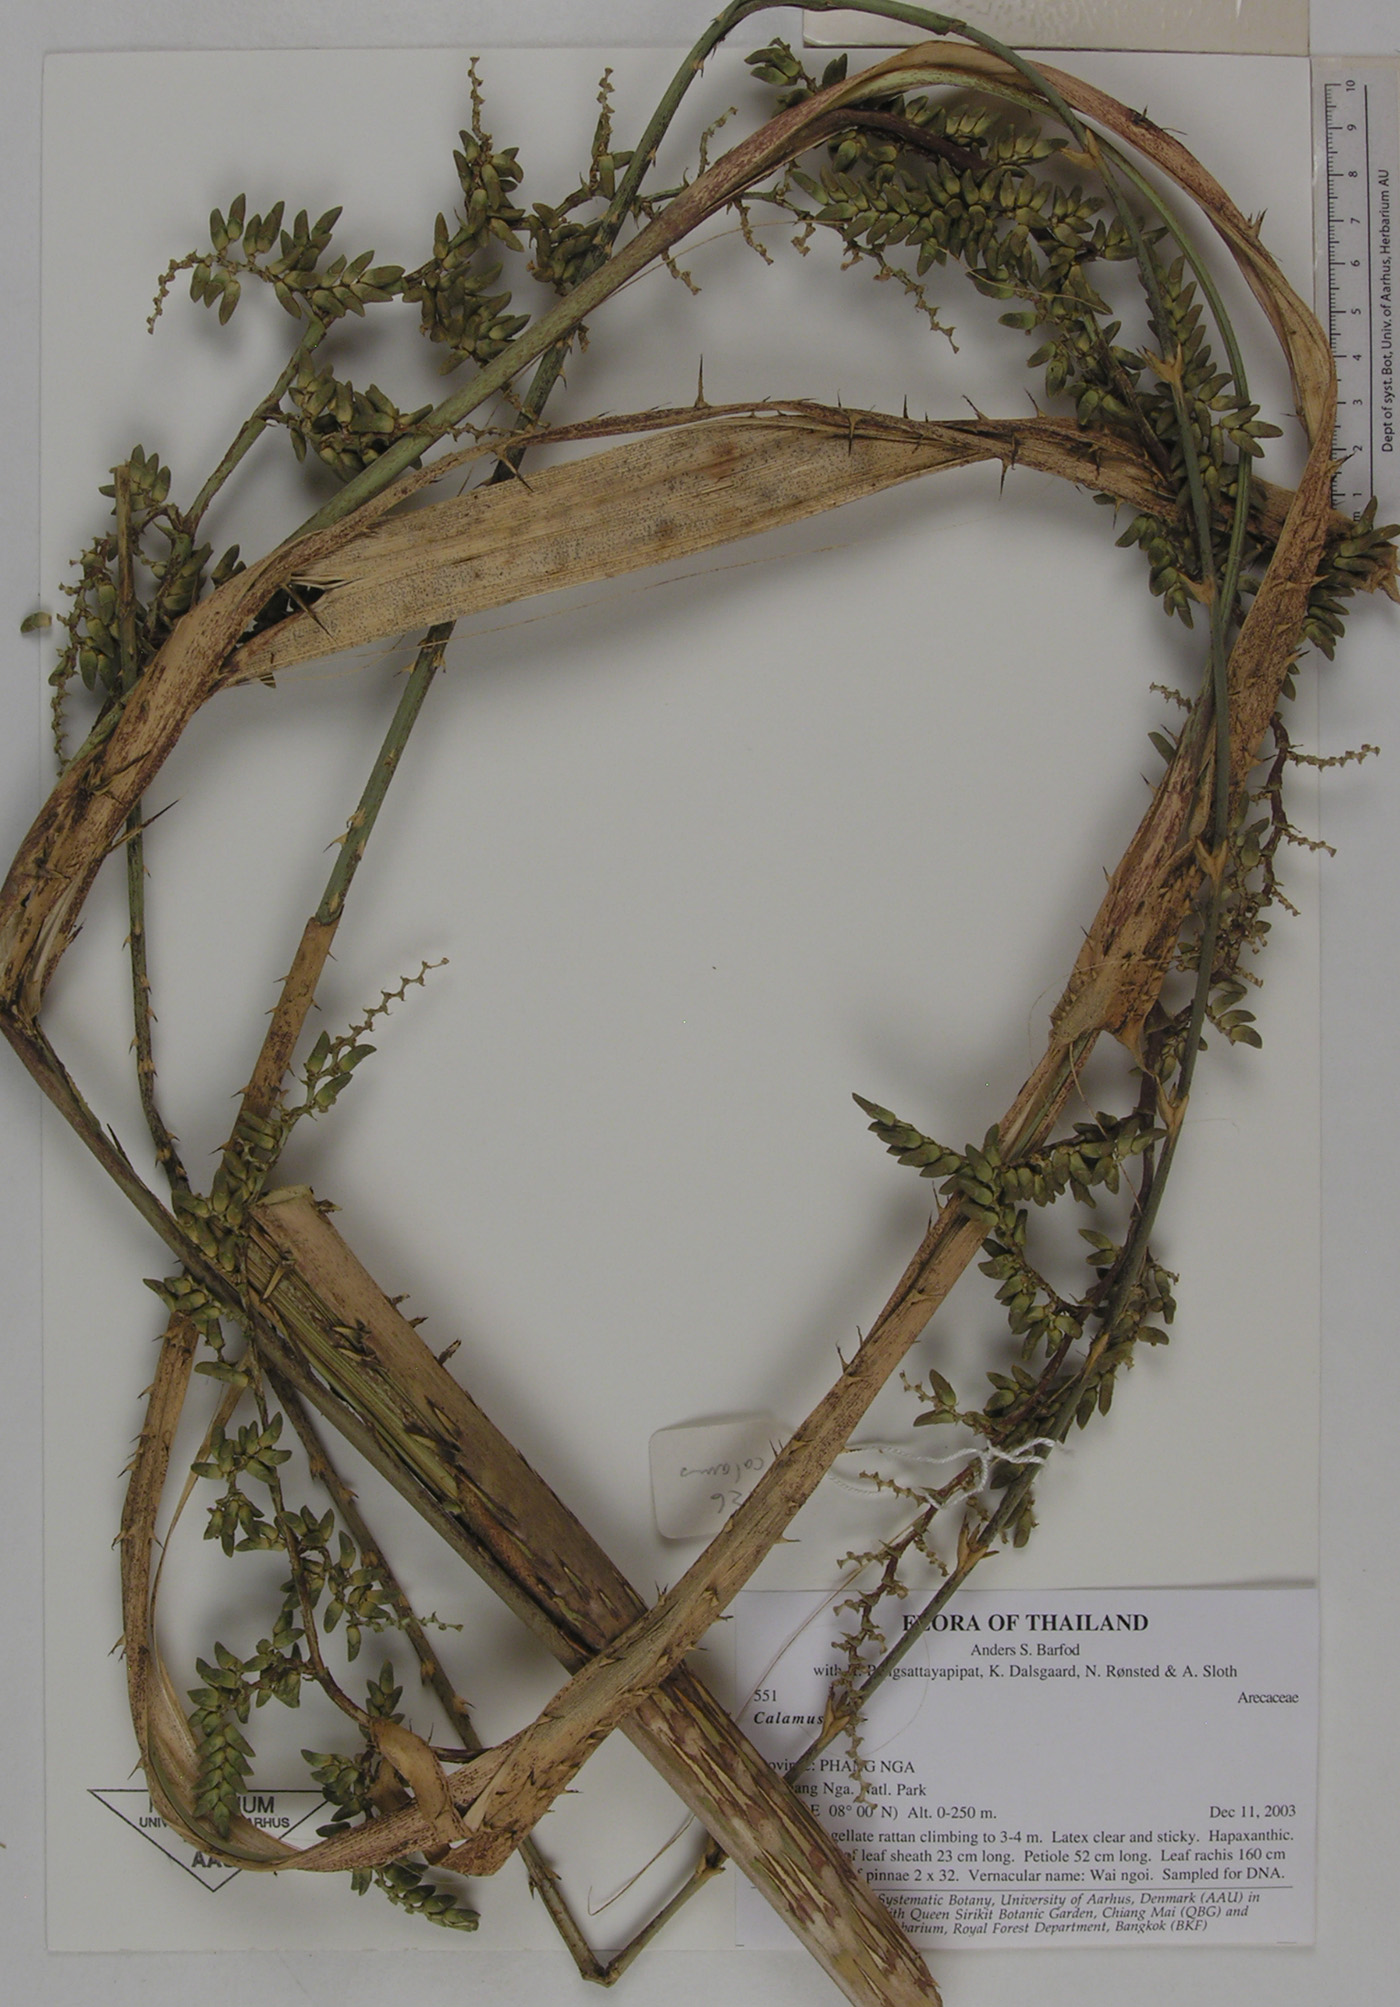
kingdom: Plantae
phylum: Tracheophyta
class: Liliopsida
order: Arecales
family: Arecaceae
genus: Calamus
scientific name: Calamus peregrinus
